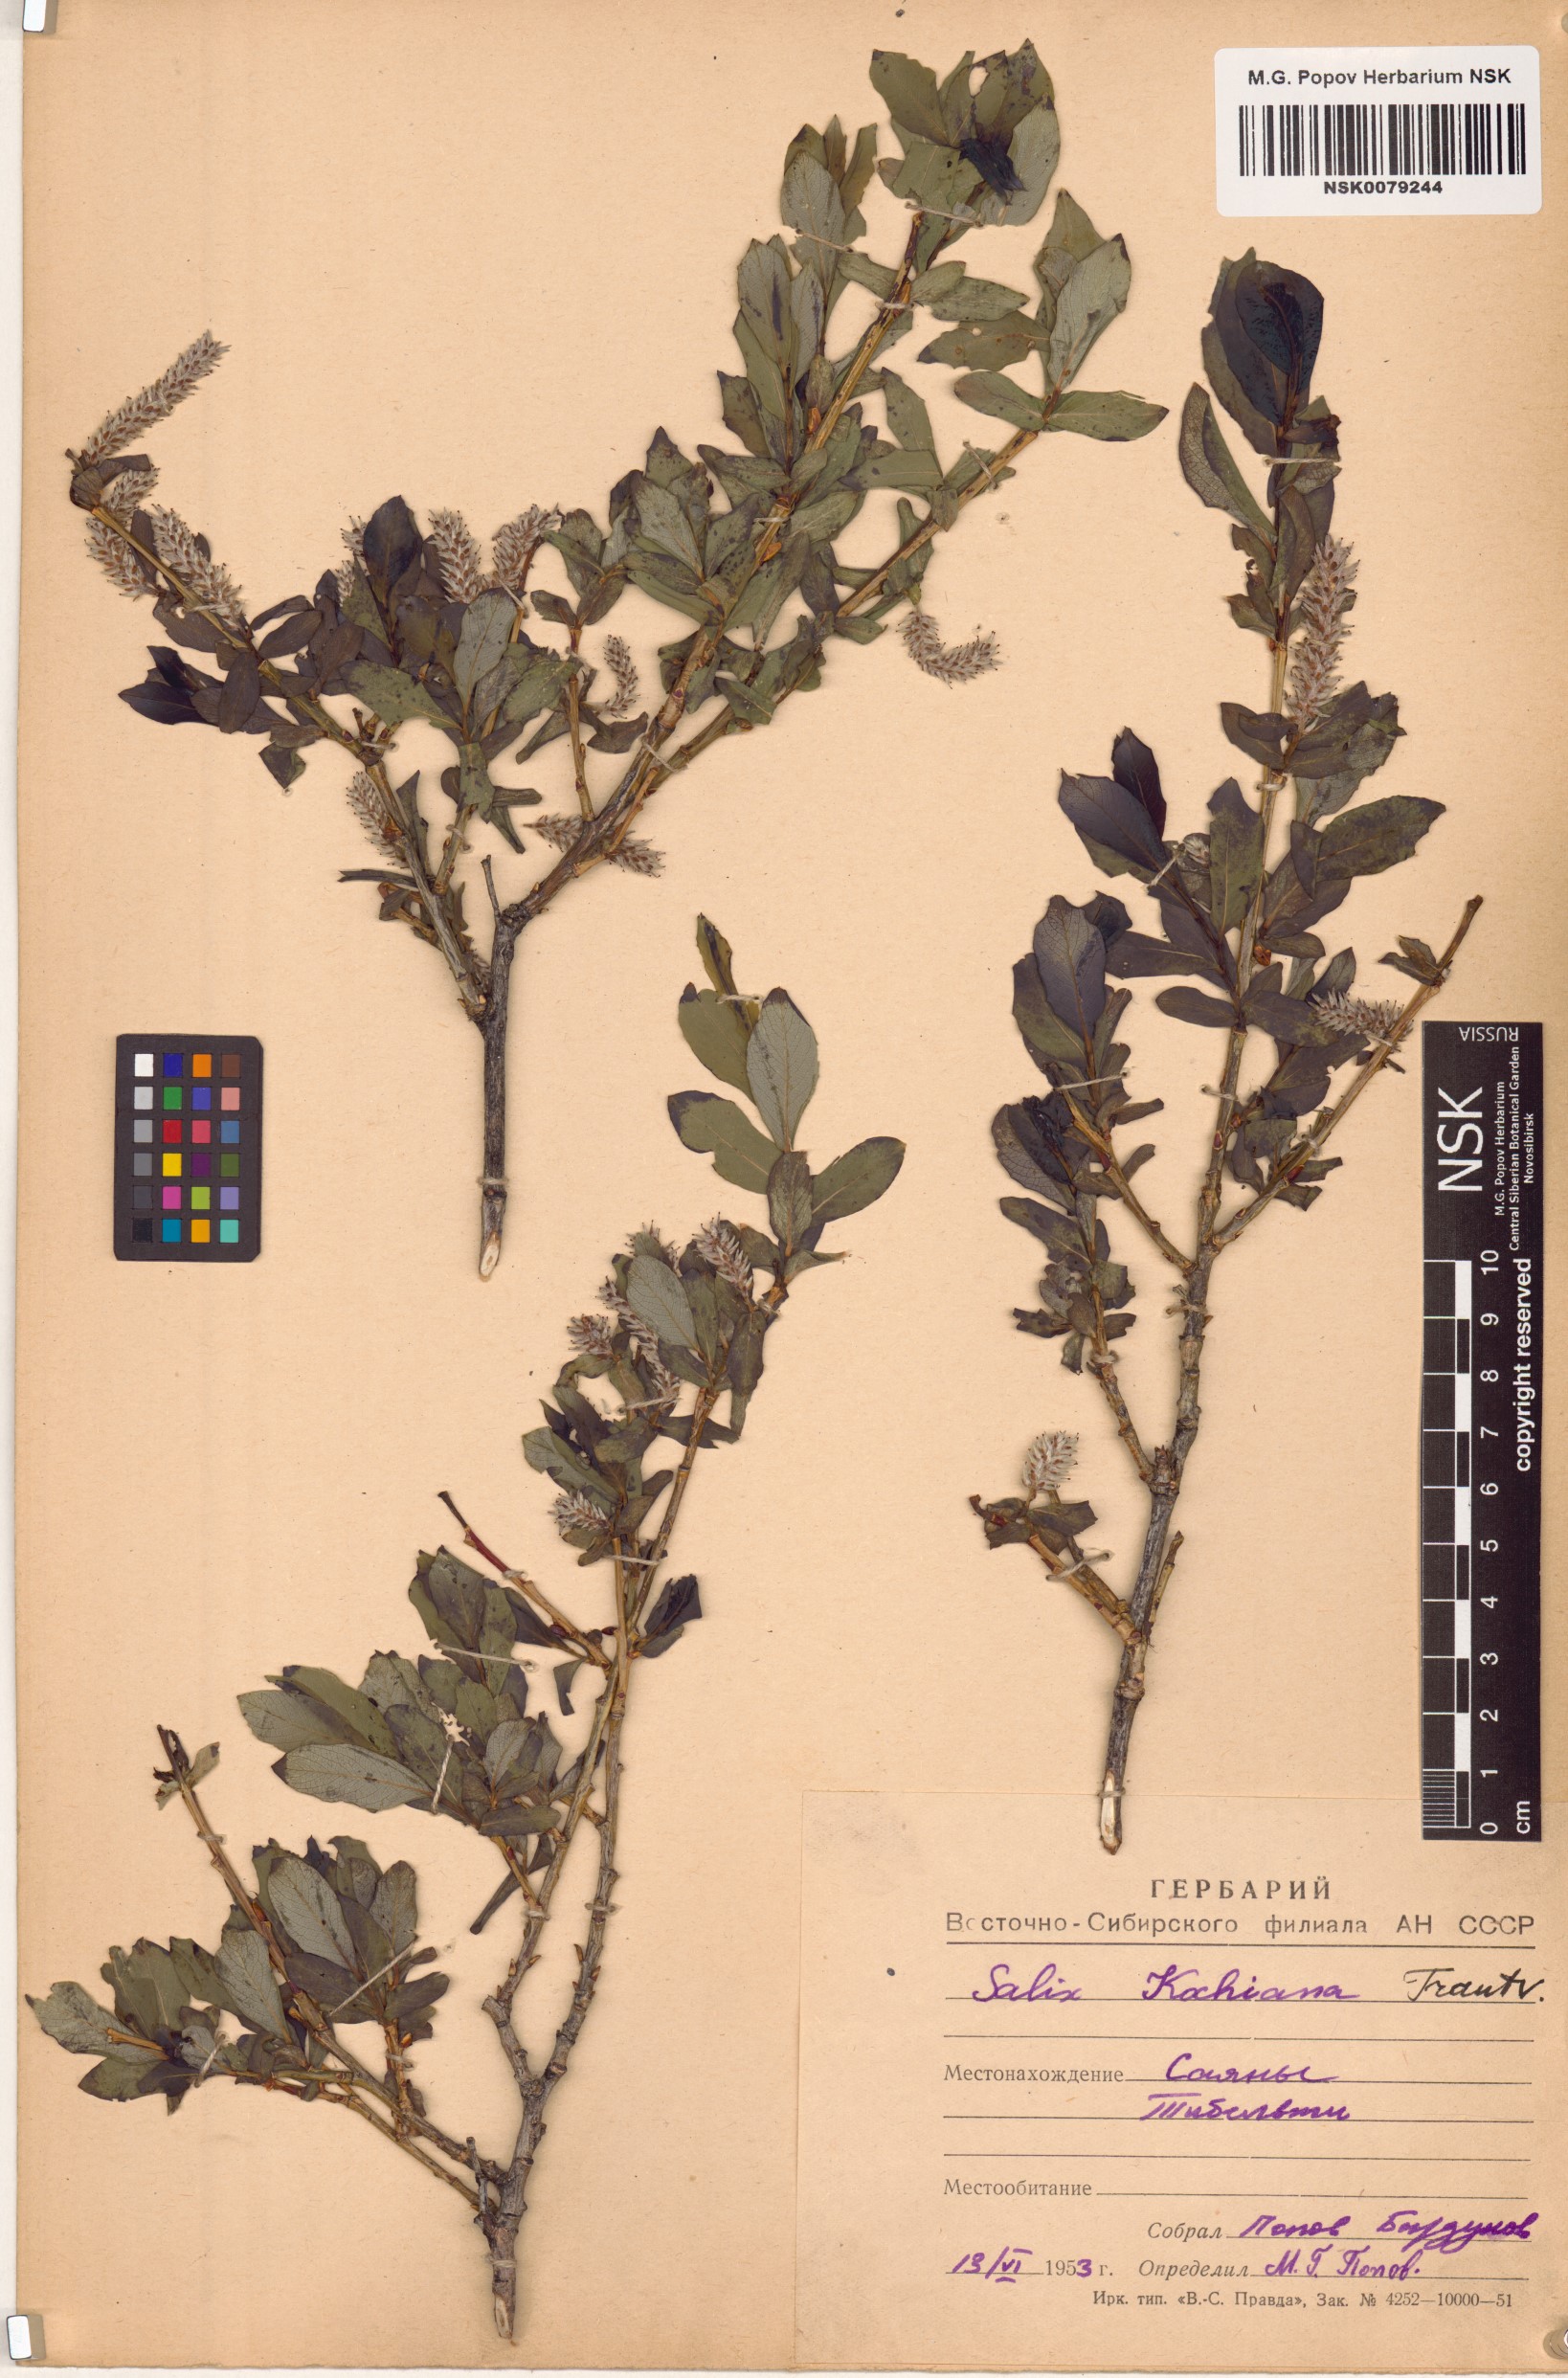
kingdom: Plantae
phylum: Tracheophyta
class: Magnoliopsida
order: Malpighiales
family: Salicaceae
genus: Salix
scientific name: Salix kochiana
